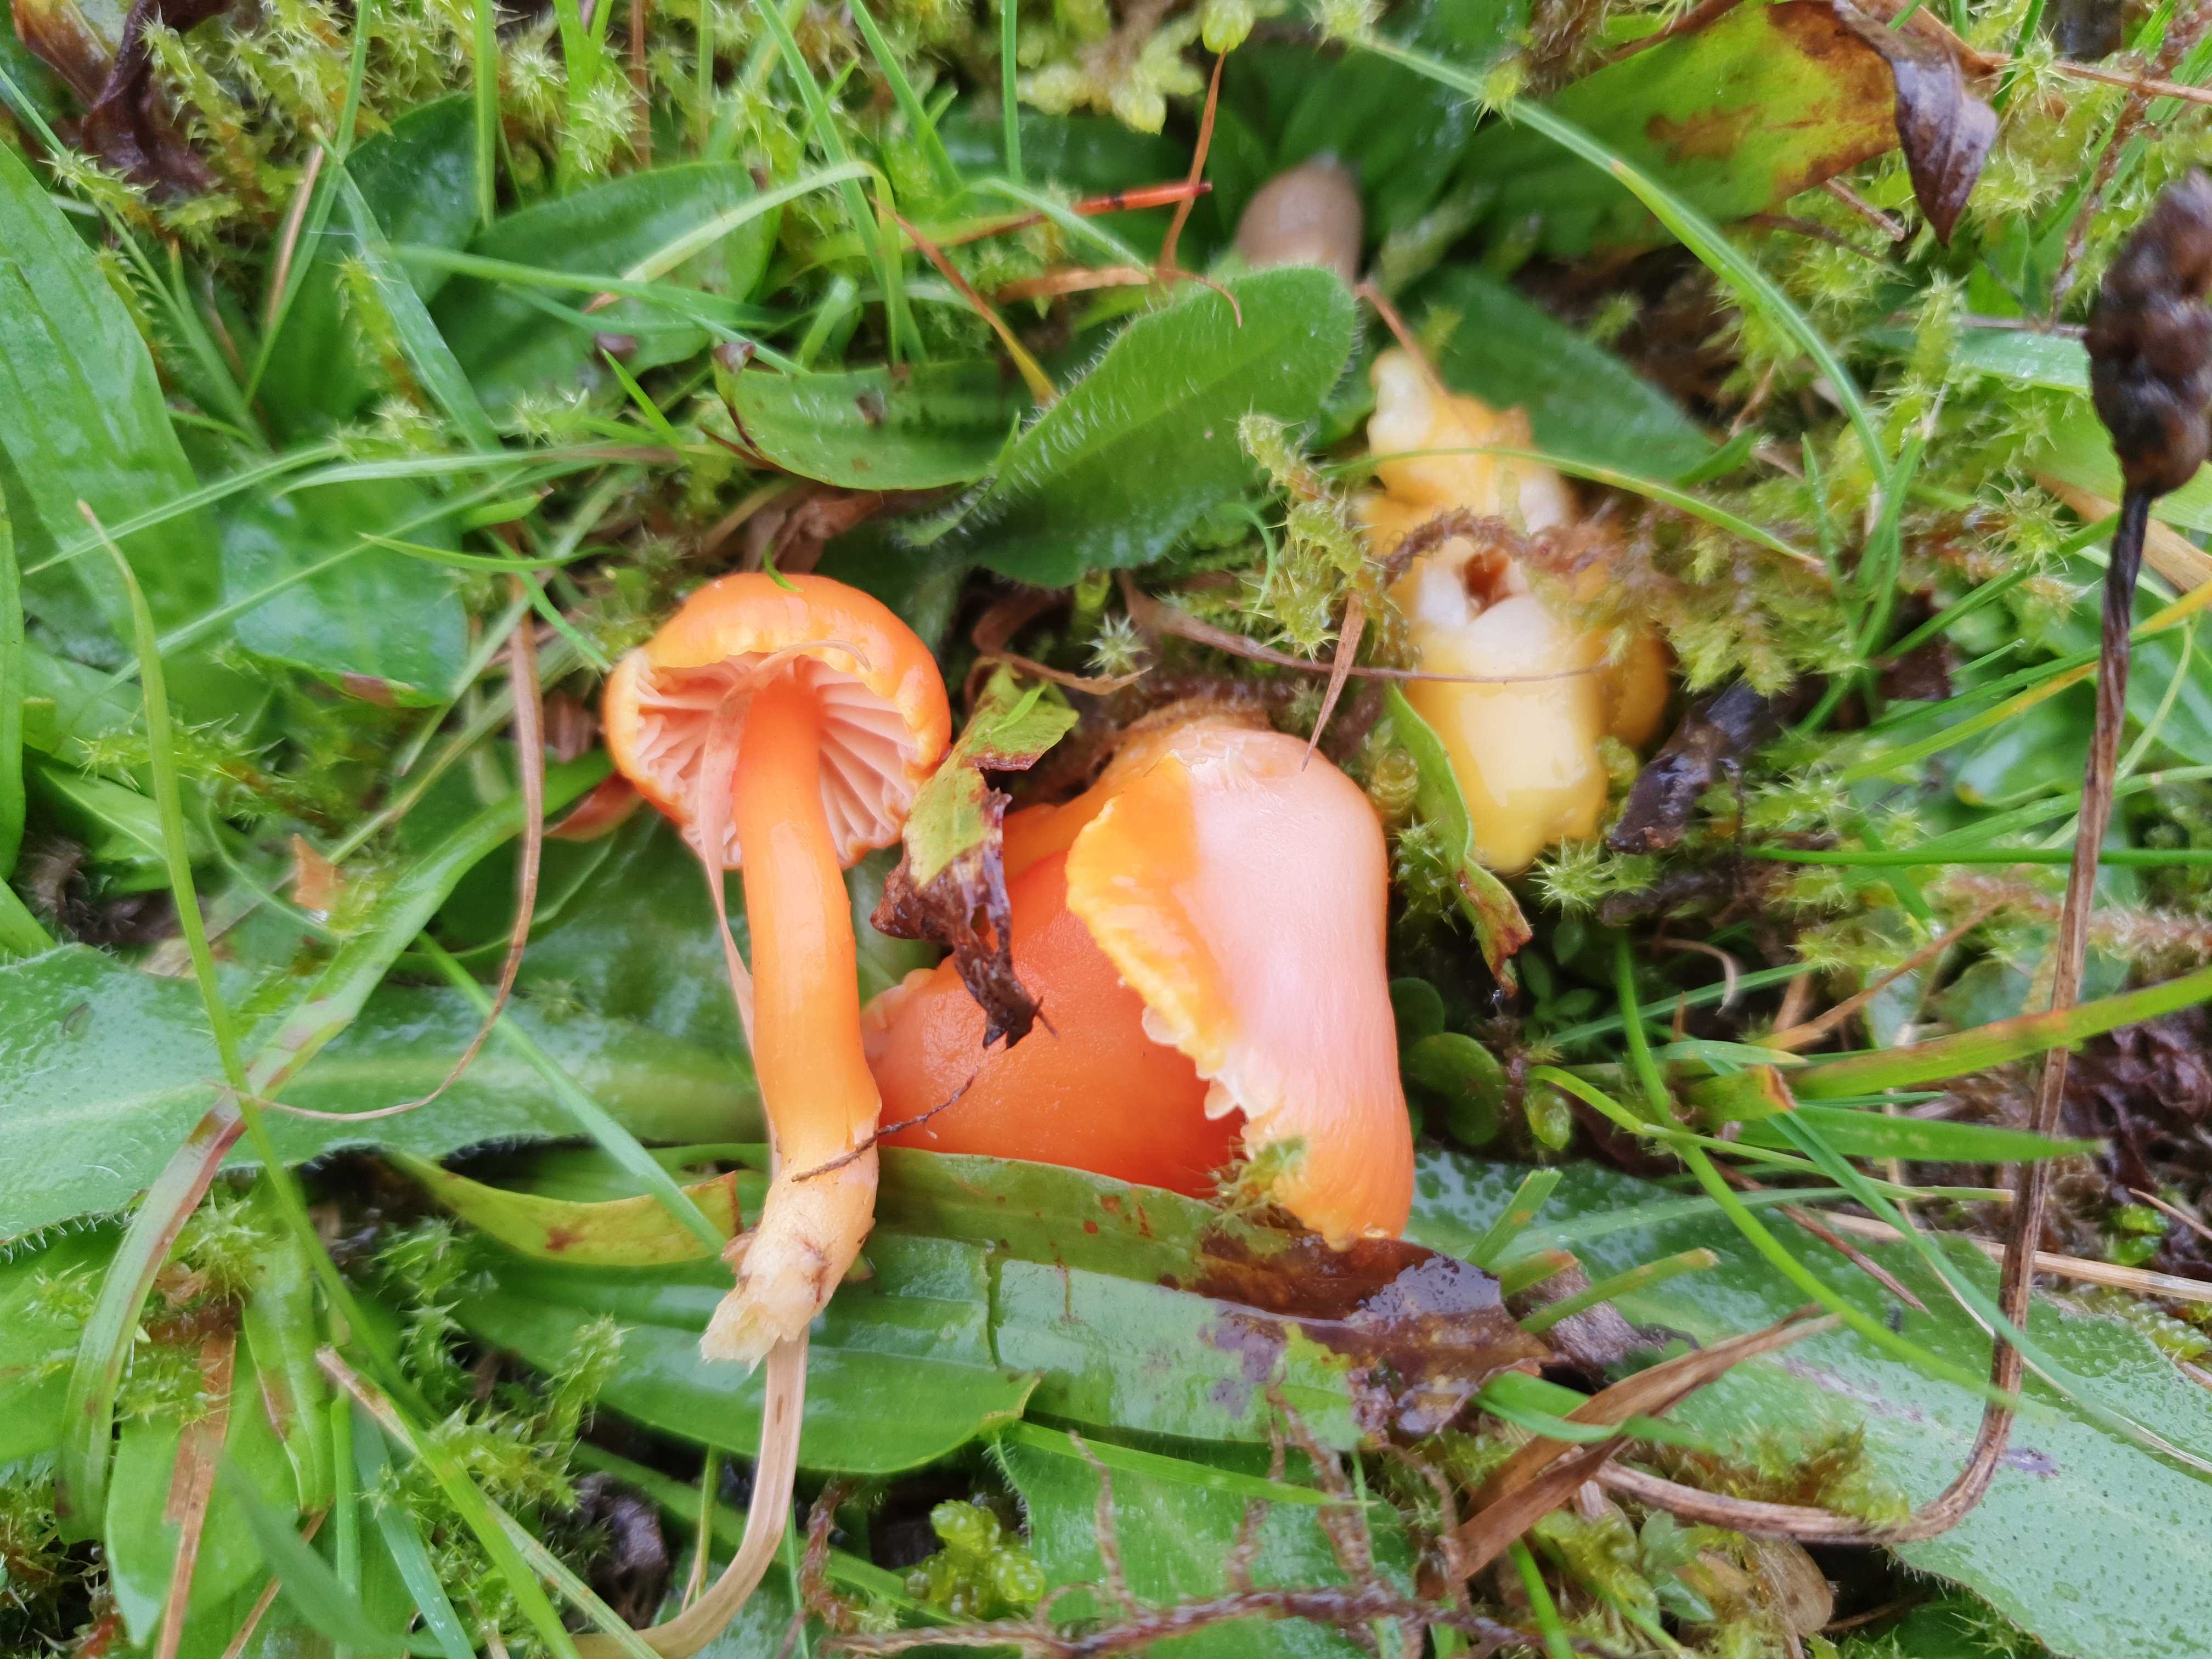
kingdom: Fungi
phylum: Basidiomycota
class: Agaricomycetes
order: Agaricales
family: Hygrophoraceae
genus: Hygrocybe
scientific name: Hygrocybe reidii
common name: honning-vokshat
